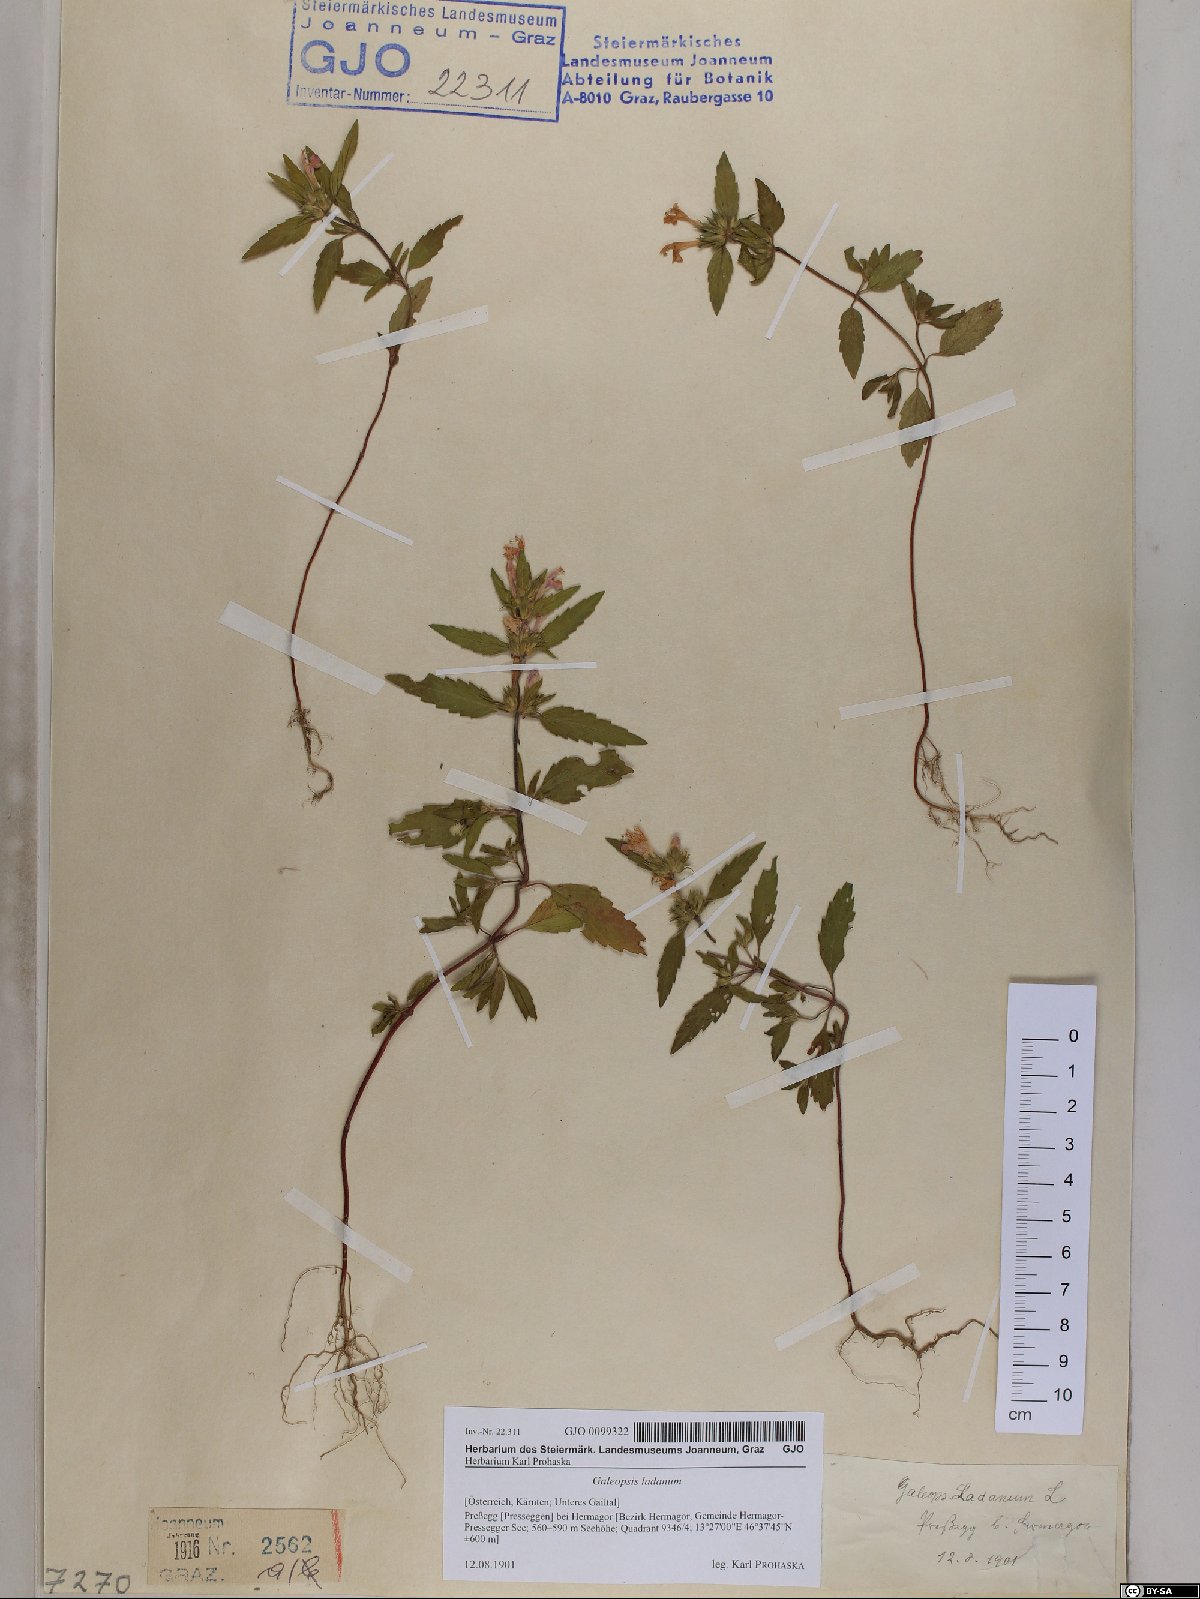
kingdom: Plantae
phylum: Tracheophyta
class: Magnoliopsida
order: Lamiales
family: Lamiaceae
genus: Galeopsis
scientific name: Galeopsis ladanum
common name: Broad-leaved hemp-nettle
